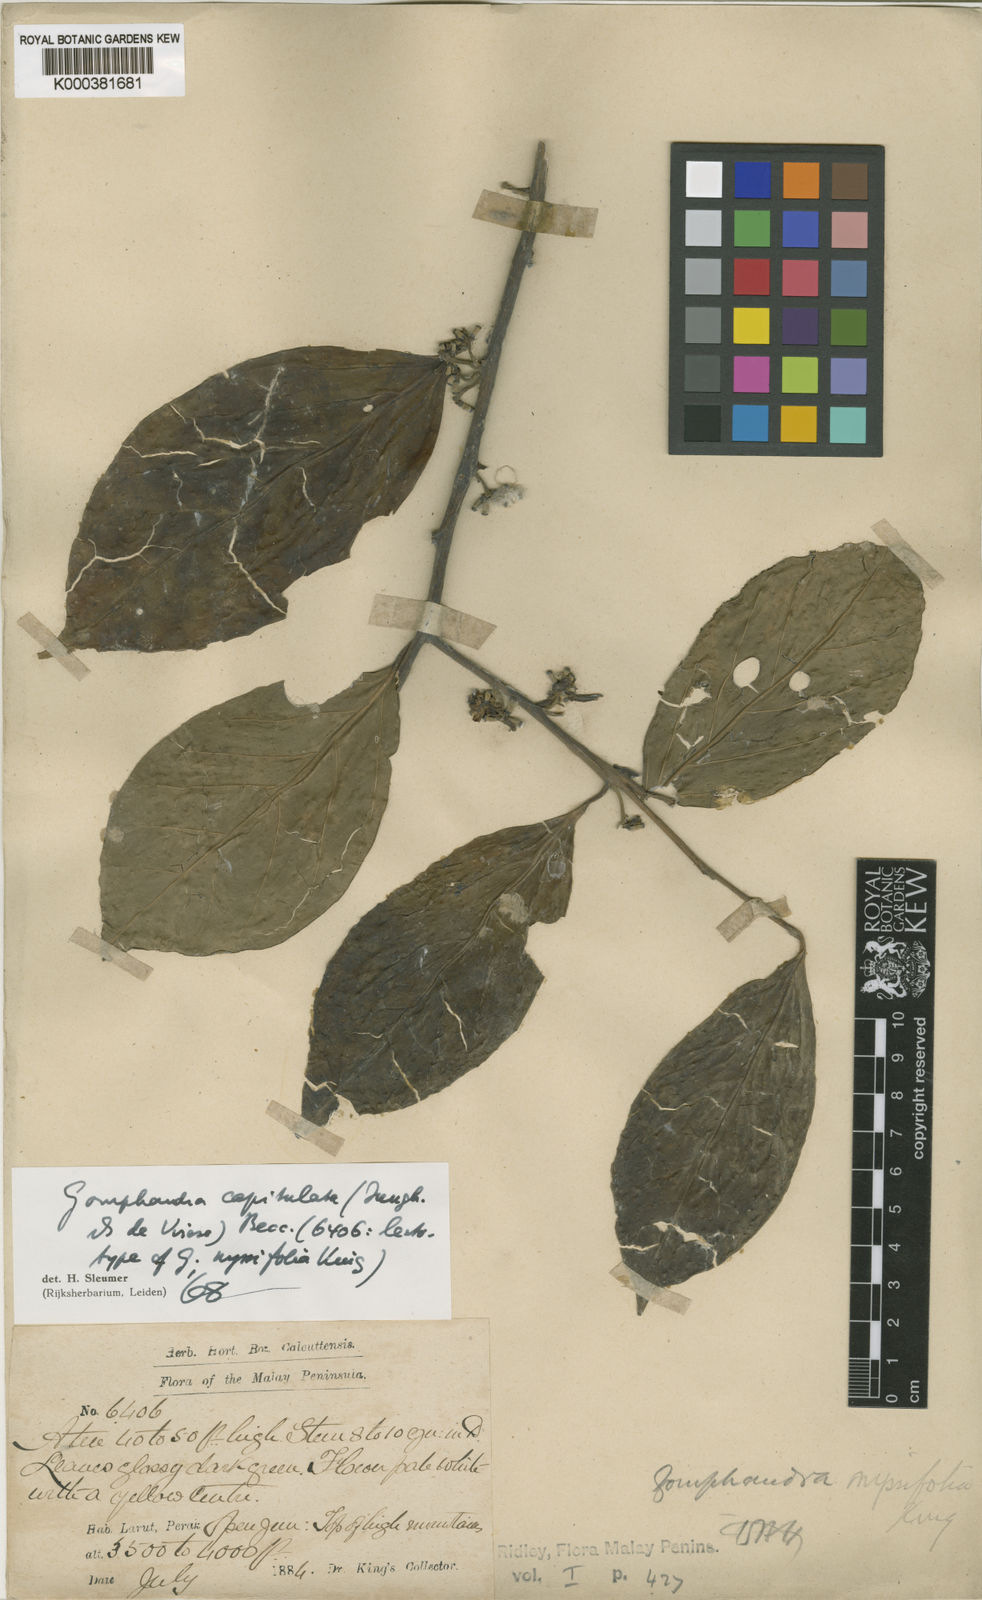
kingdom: Plantae
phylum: Tracheophyta
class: Magnoliopsida
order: Cardiopteridales
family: Stemonuraceae
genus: Gomphandra
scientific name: Gomphandra capitulata
